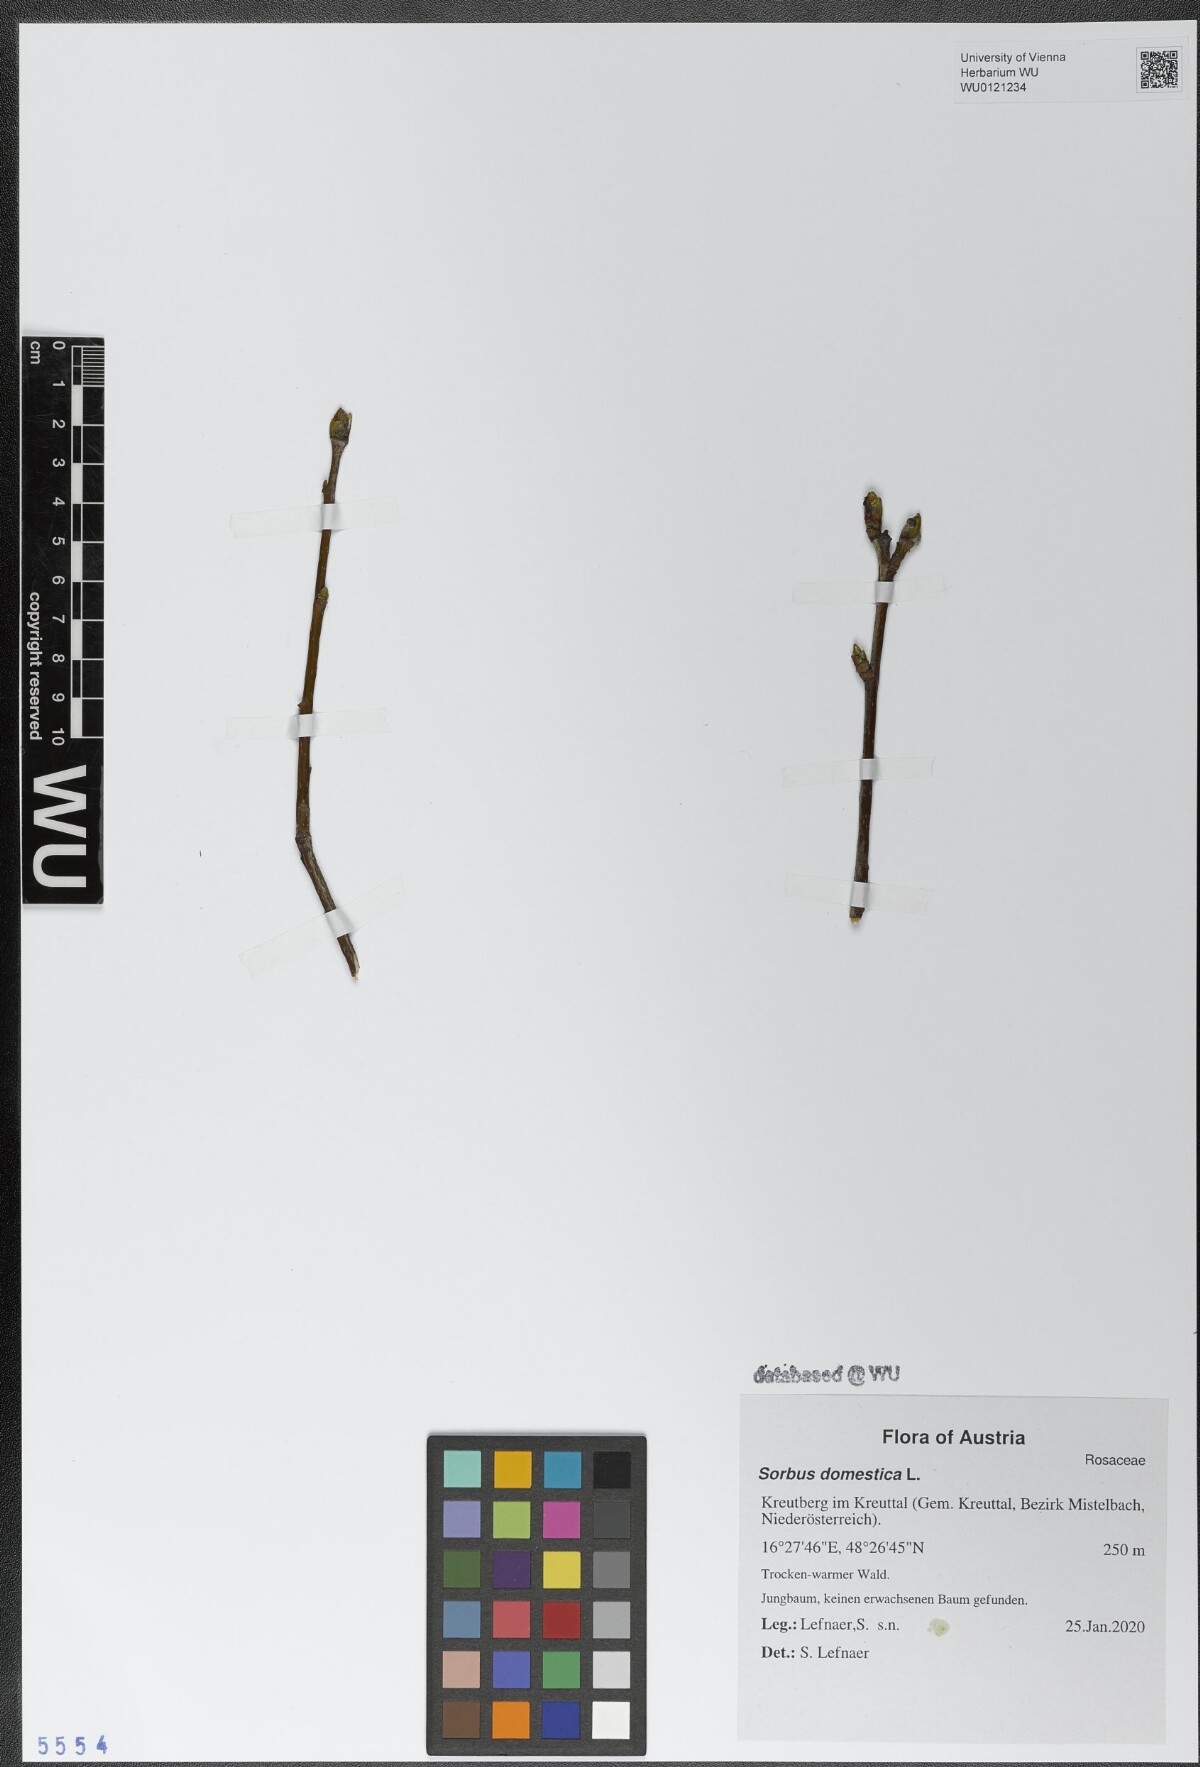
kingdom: Plantae
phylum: Tracheophyta
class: Magnoliopsida
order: Rosales
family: Rosaceae
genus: Cormus
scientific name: Cormus domestica
